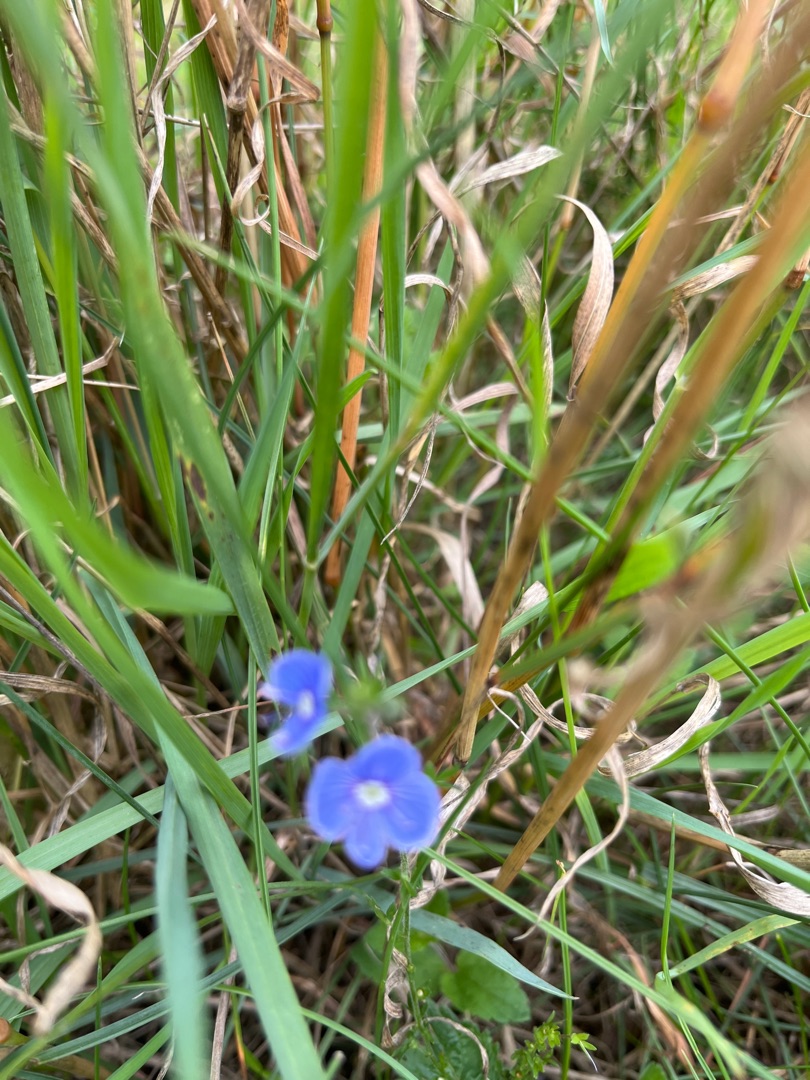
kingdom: Plantae
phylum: Tracheophyta
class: Magnoliopsida
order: Lamiales
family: Plantaginaceae
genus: Veronica
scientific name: Veronica chamaedrys
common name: Tveskægget ærenpris
